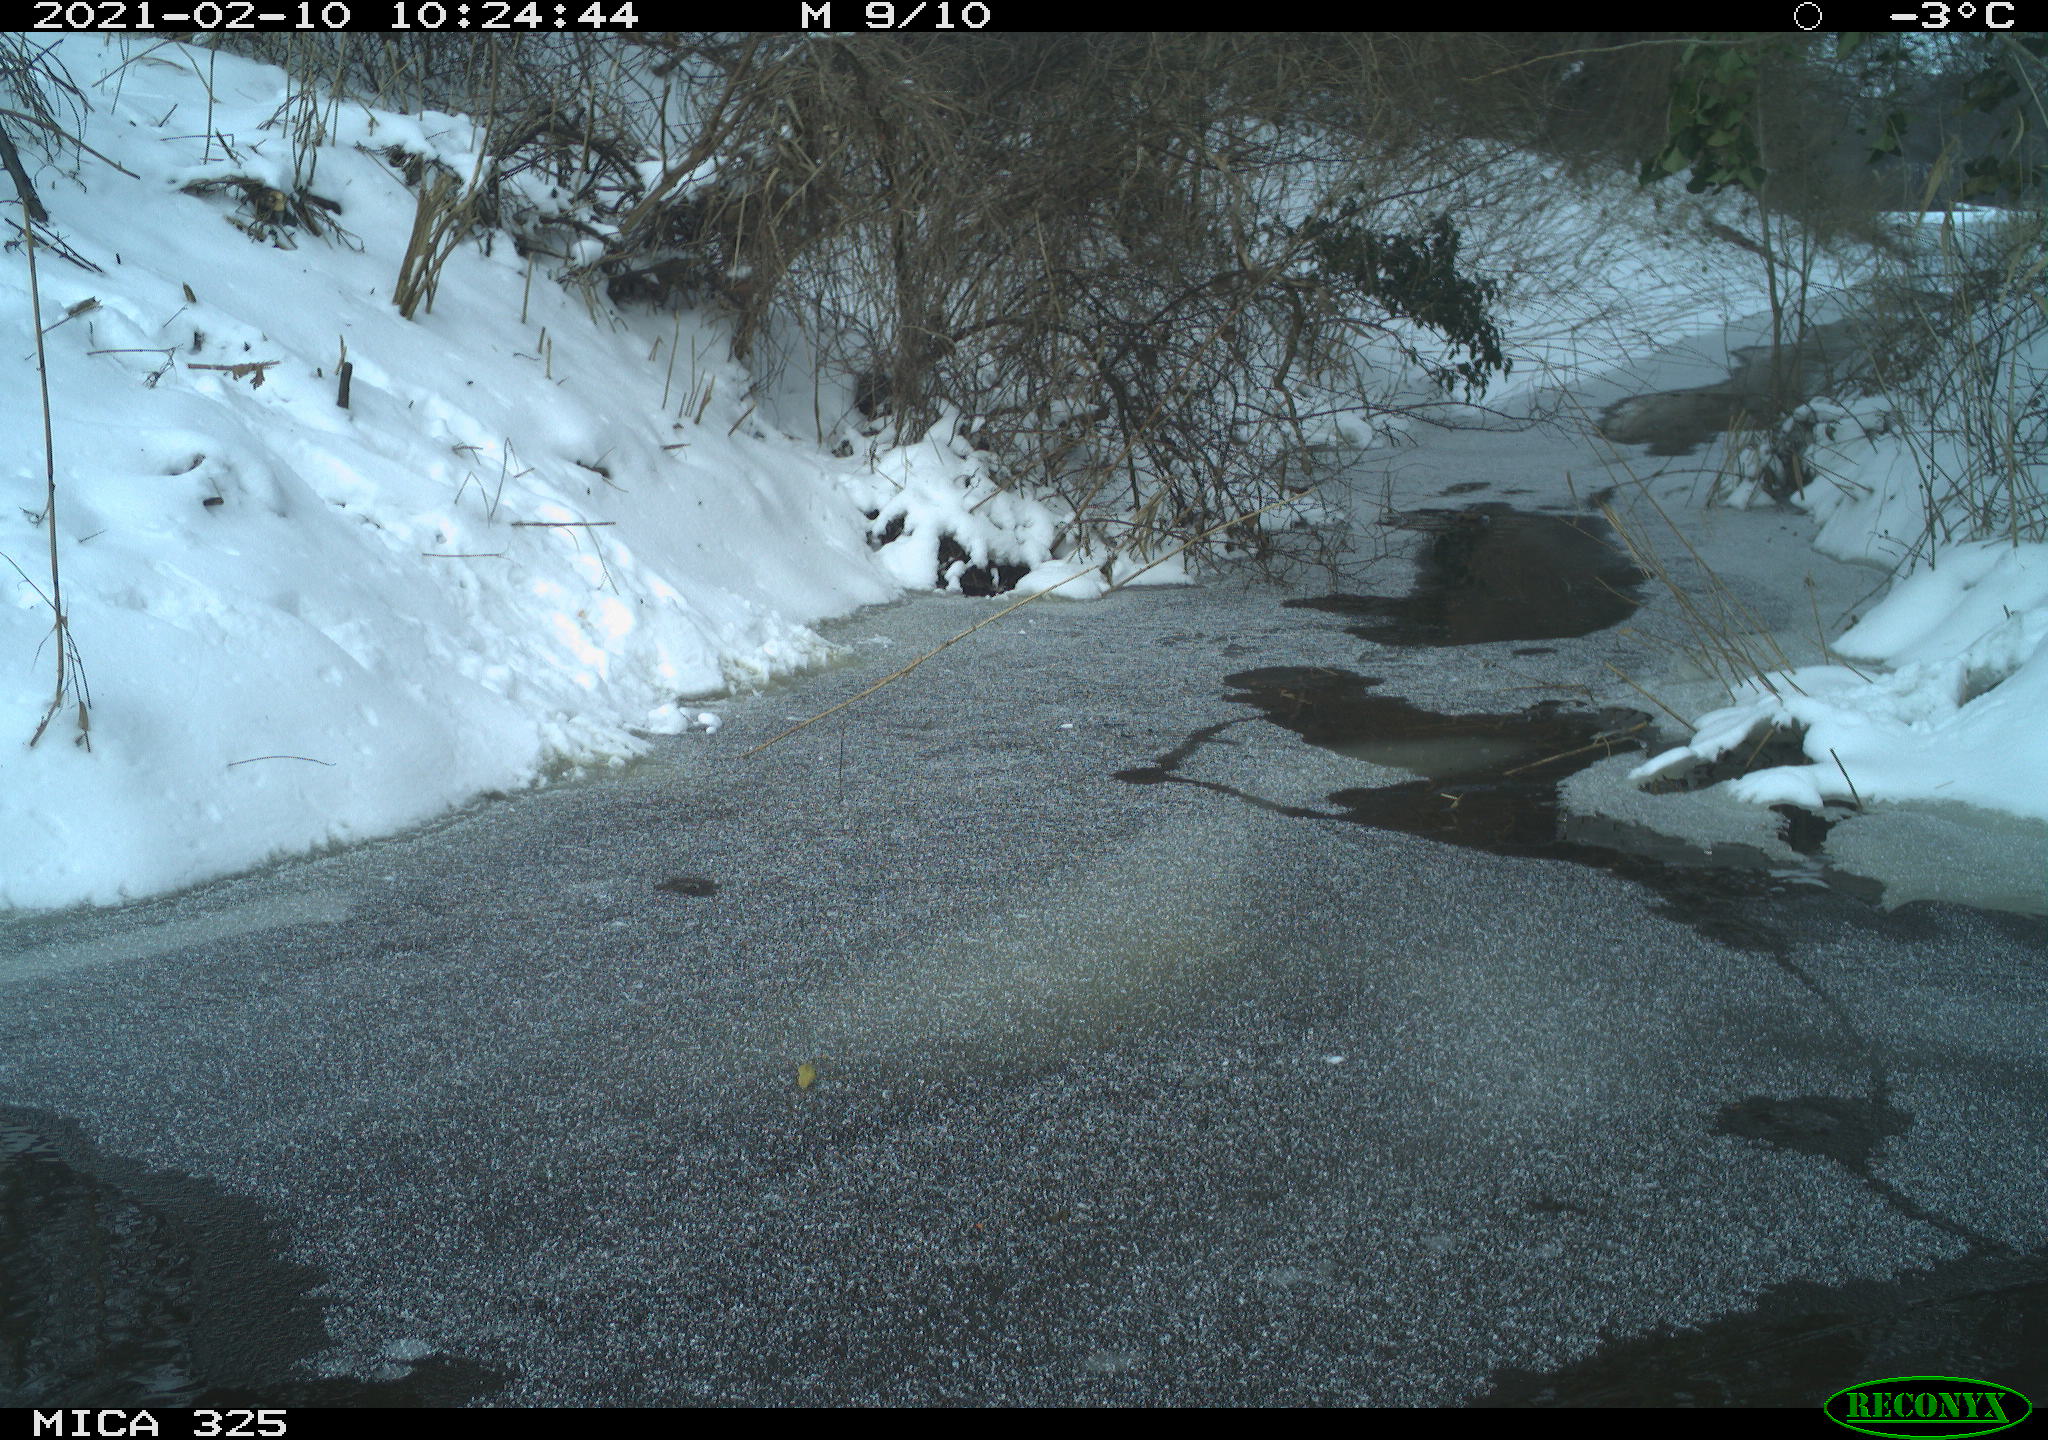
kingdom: Animalia
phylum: Chordata
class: Mammalia
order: Lagomorpha
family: Leporidae
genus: Lepus
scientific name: Lepus europaeus
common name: European hare
